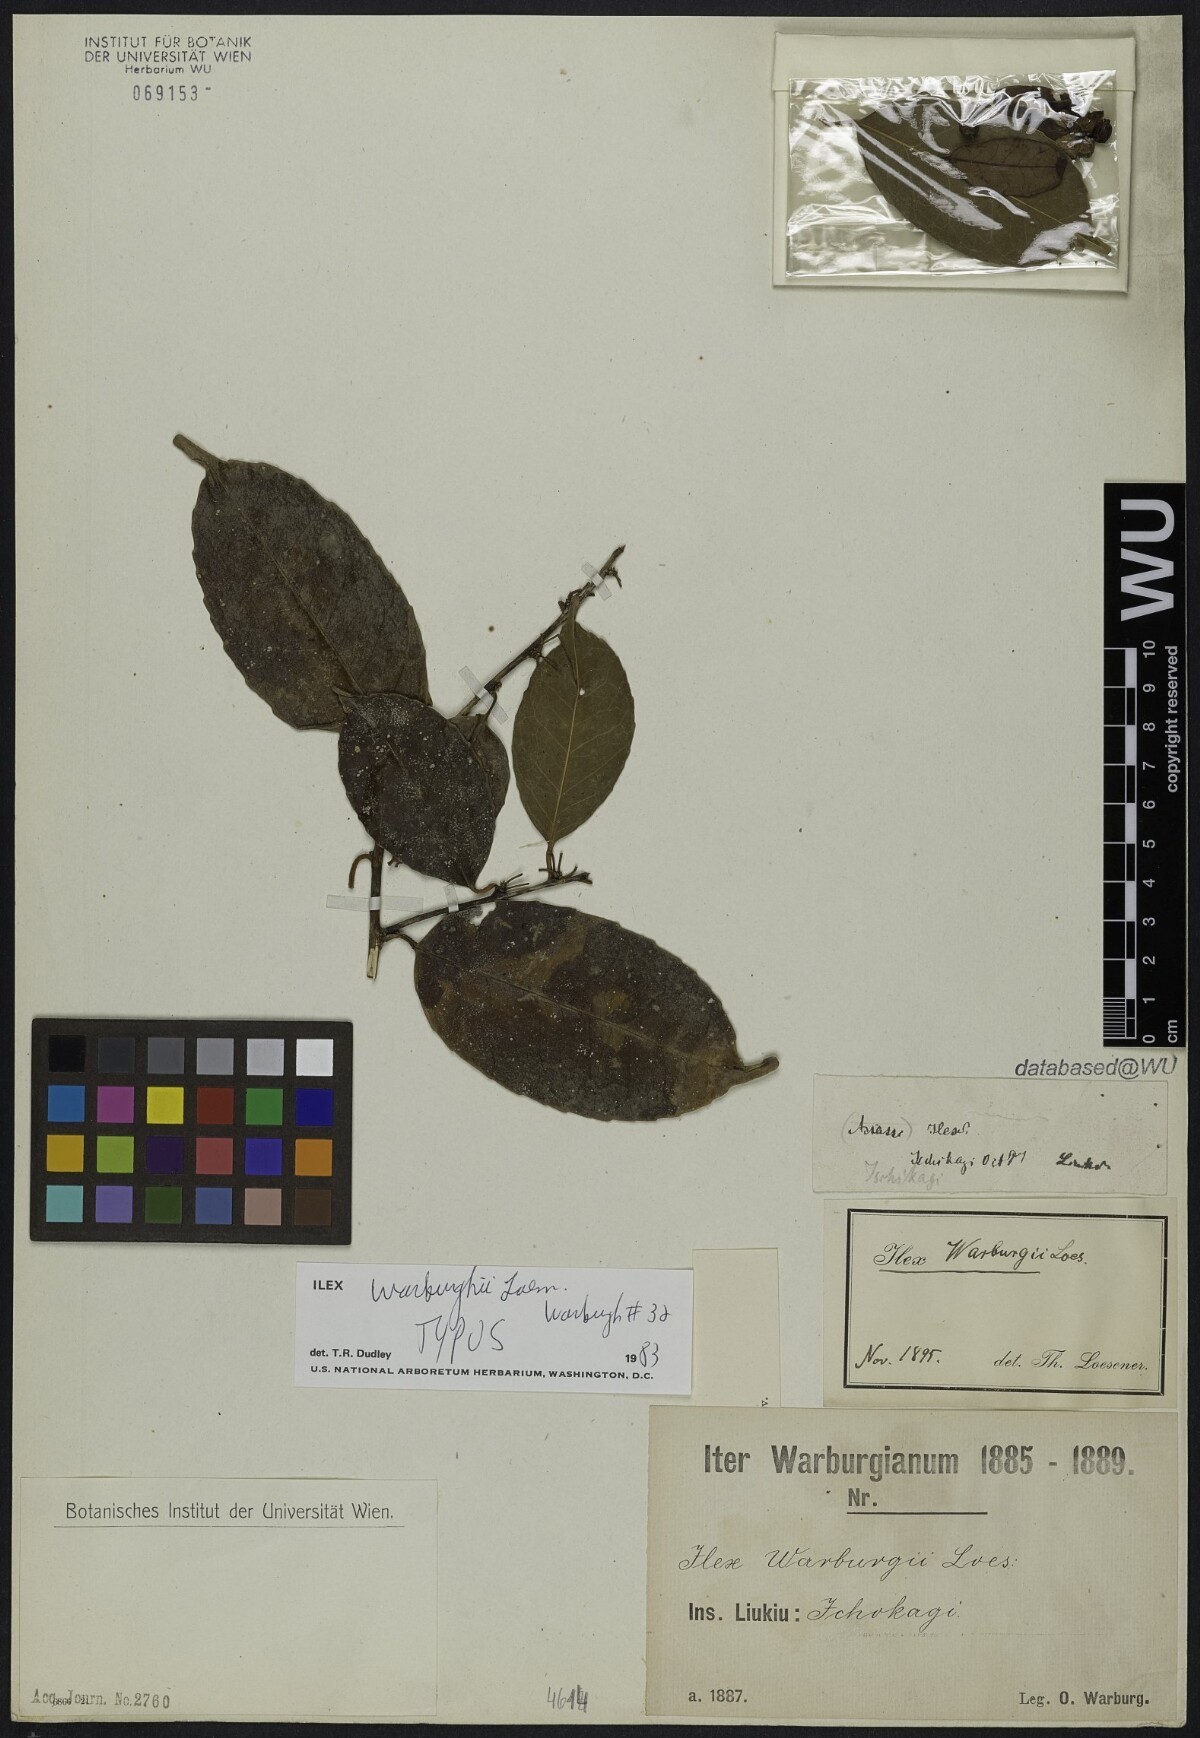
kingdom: Plantae
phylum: Tracheophyta
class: Magnoliopsida
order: Aquifoliales
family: Aquifoliaceae
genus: Ilex
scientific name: Ilex warburgii
